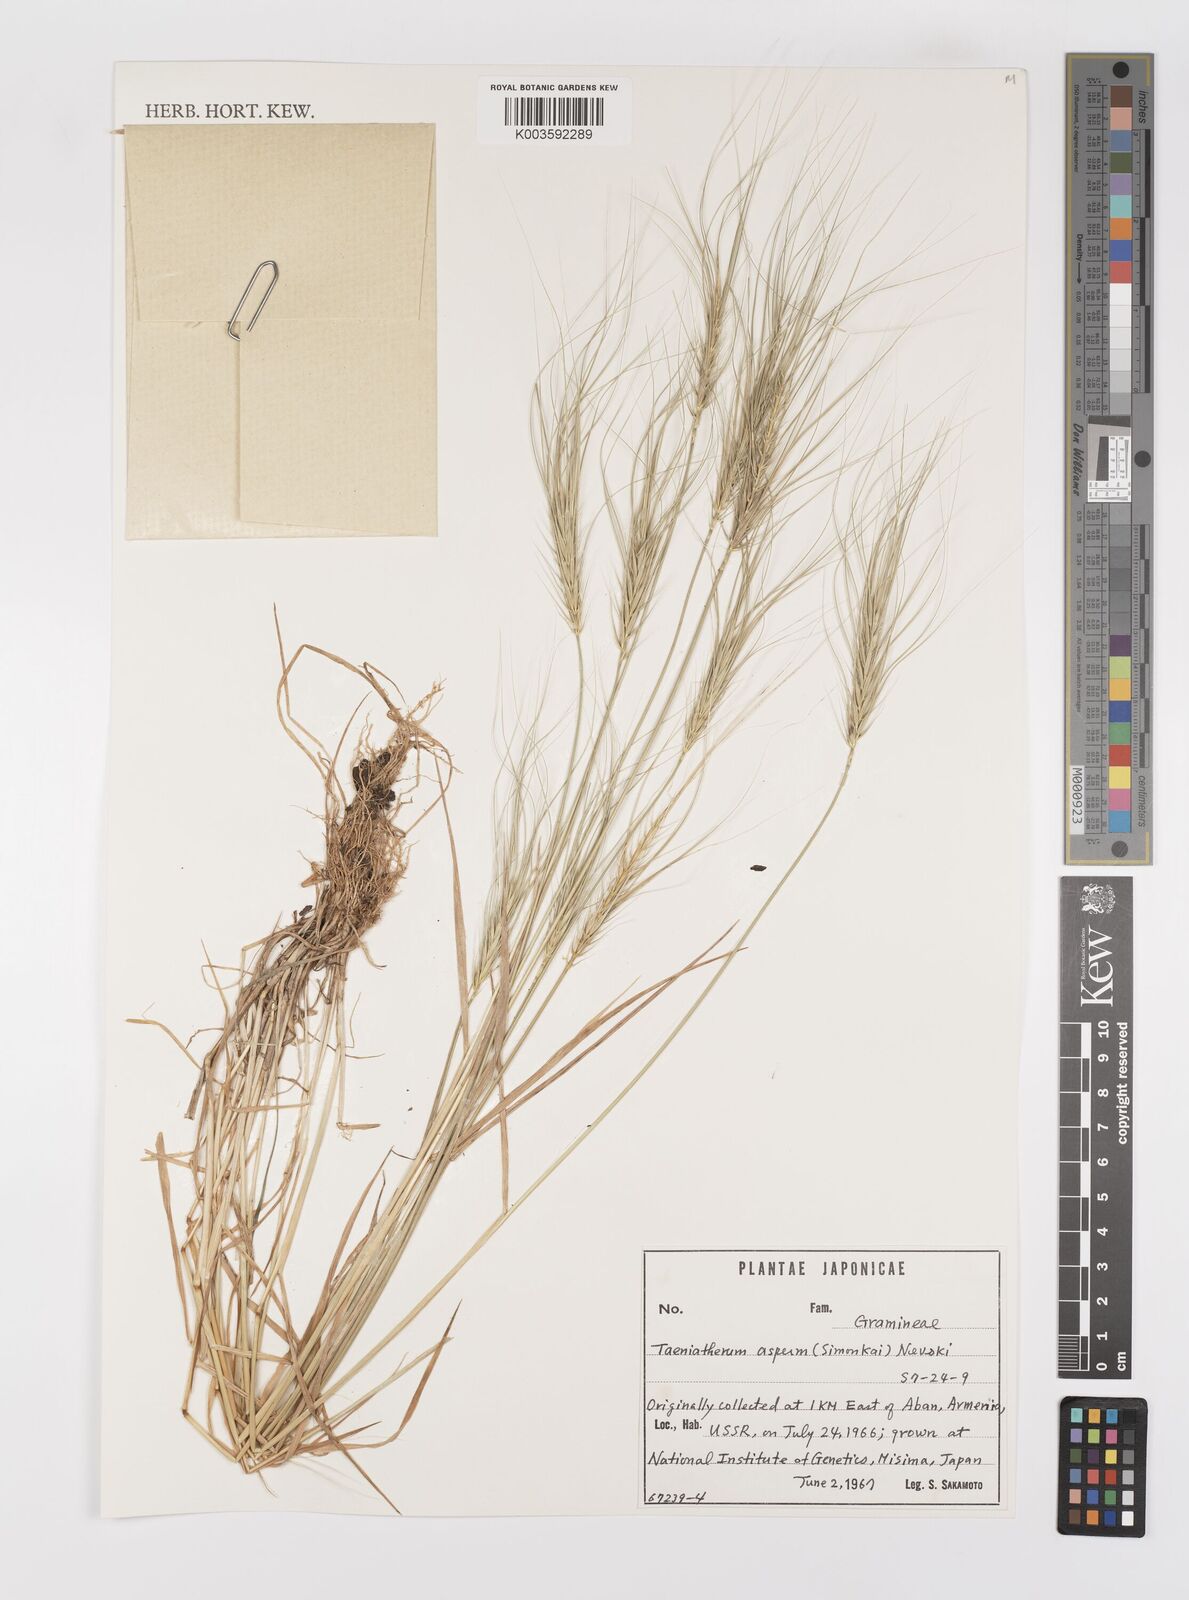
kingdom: Plantae
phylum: Tracheophyta
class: Liliopsida
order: Poales
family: Poaceae
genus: Taeniatherum
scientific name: Taeniatherum caput-medusae
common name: Medusahead
